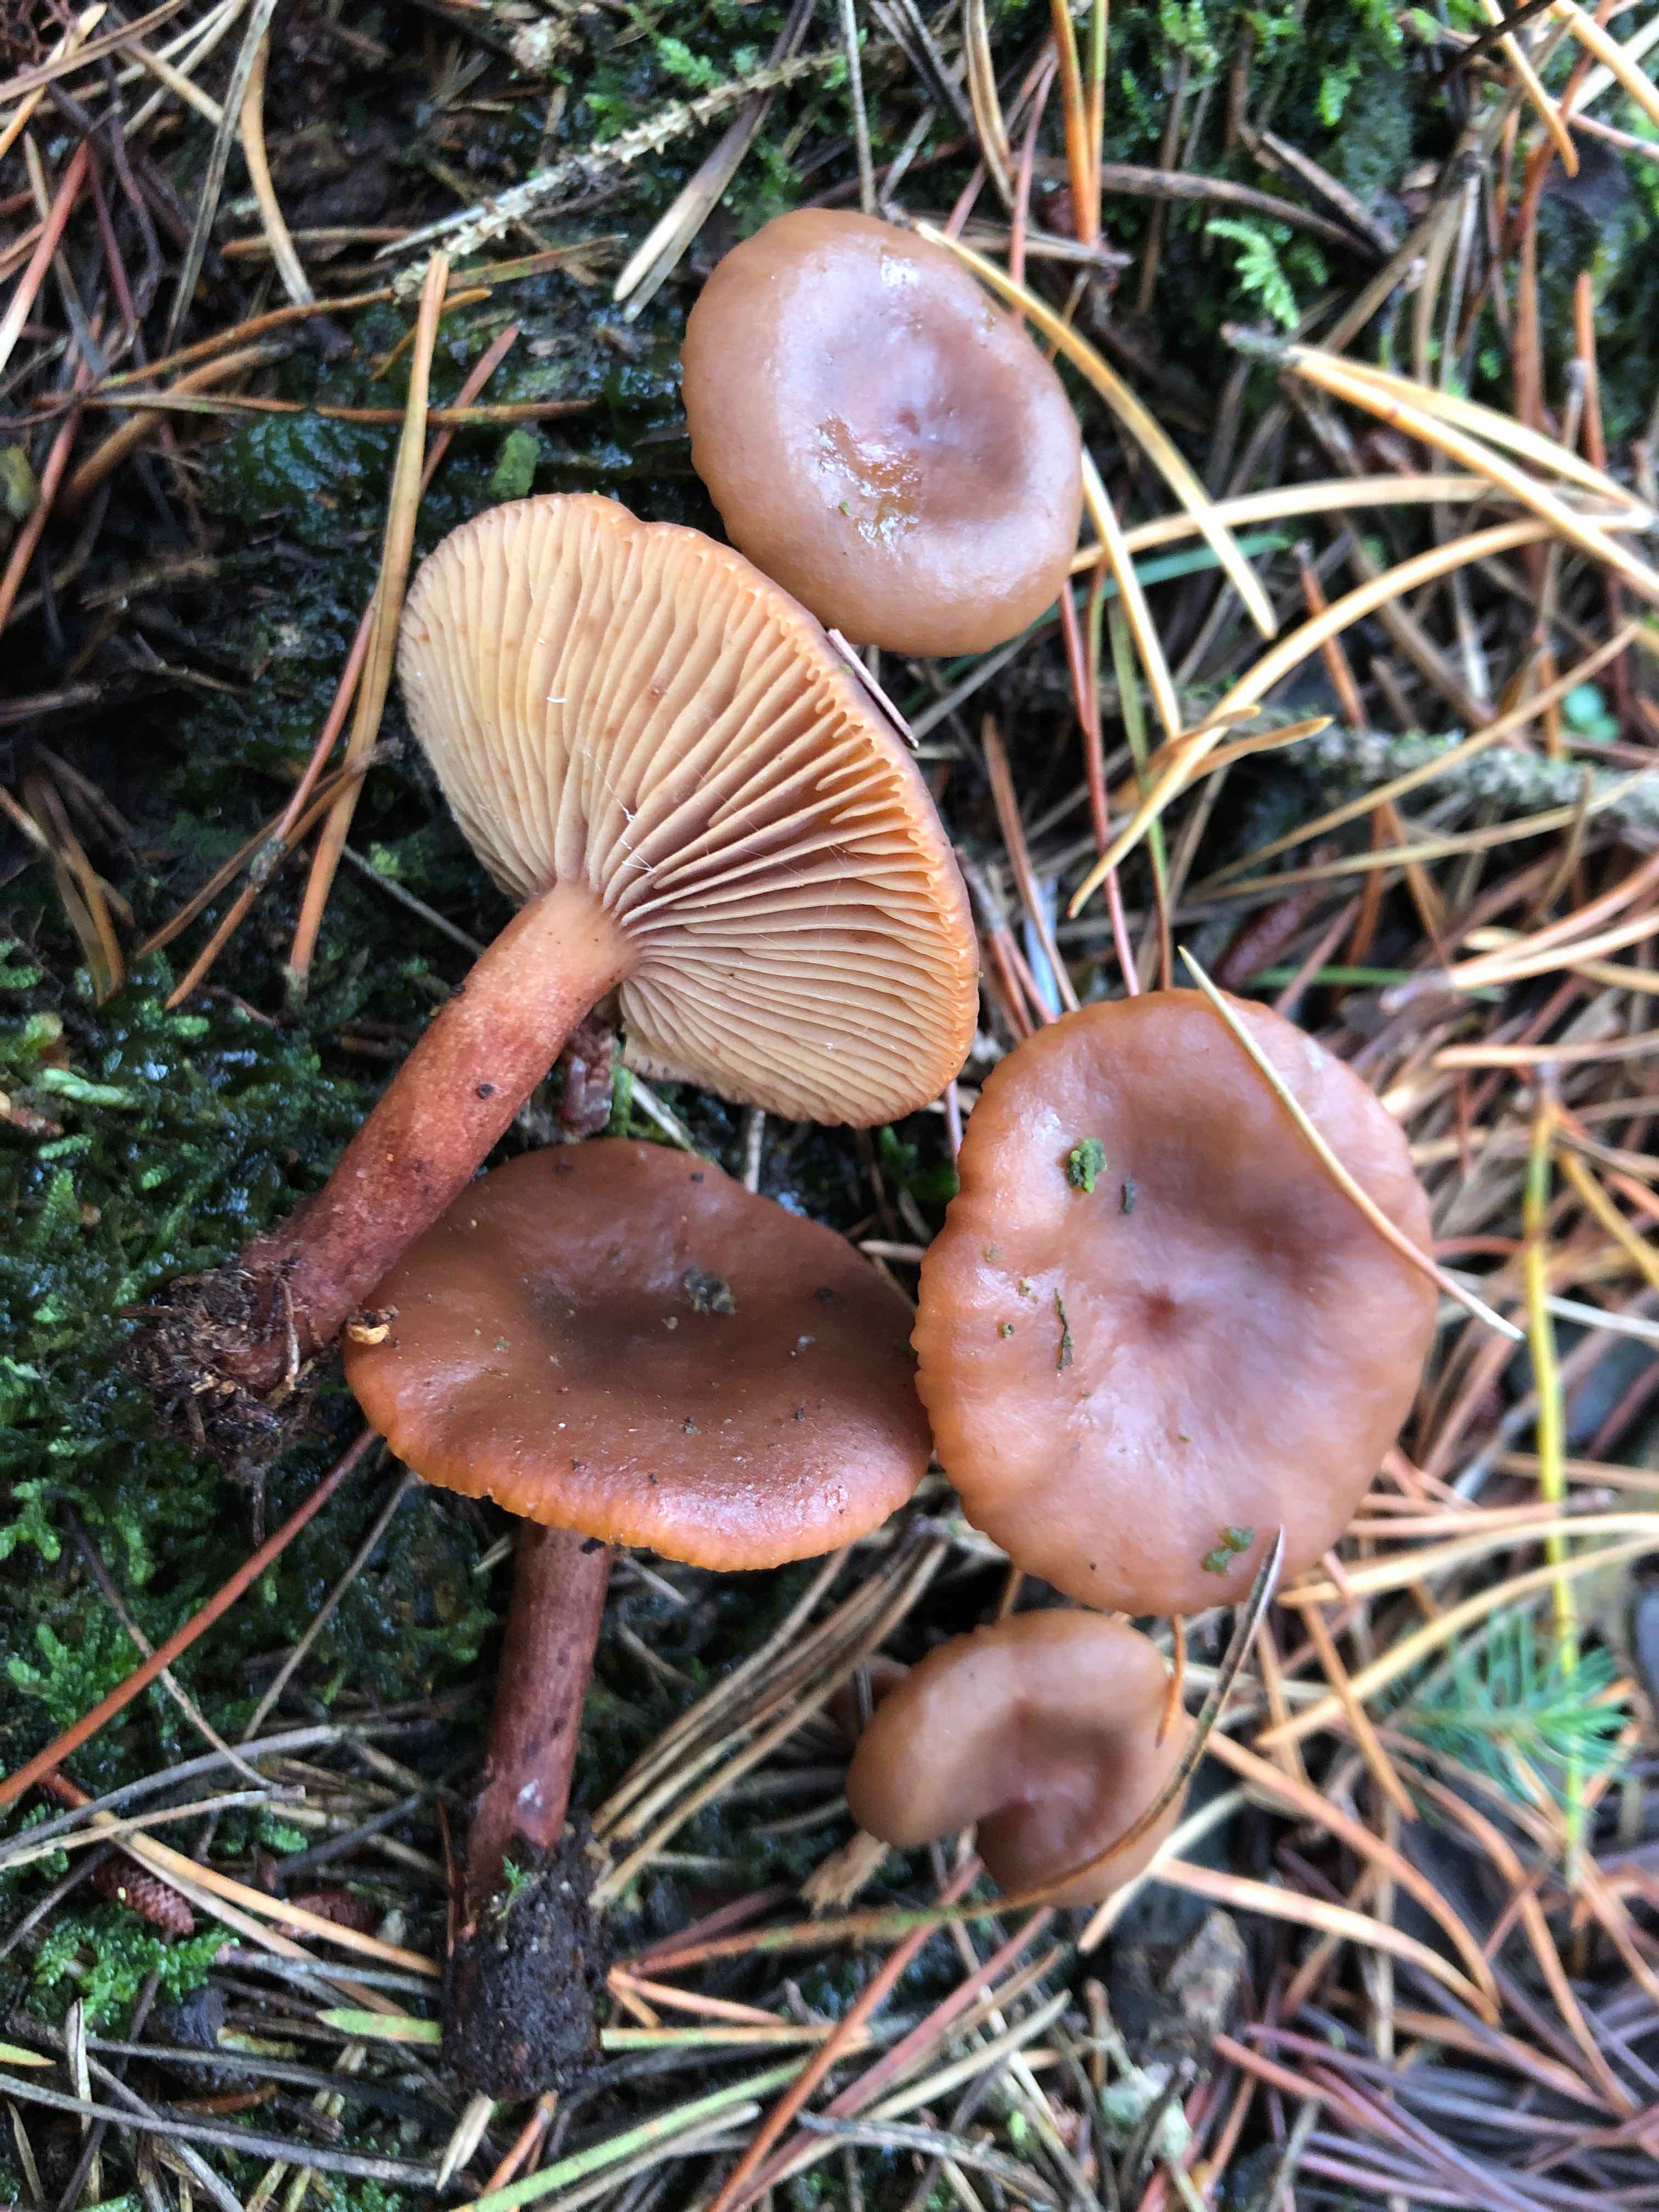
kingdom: Fungi
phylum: Basidiomycota
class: Agaricomycetes
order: Russulales
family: Russulaceae
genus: Lactarius
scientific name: Lactarius hepaticus
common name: leverbrun mælkehat
